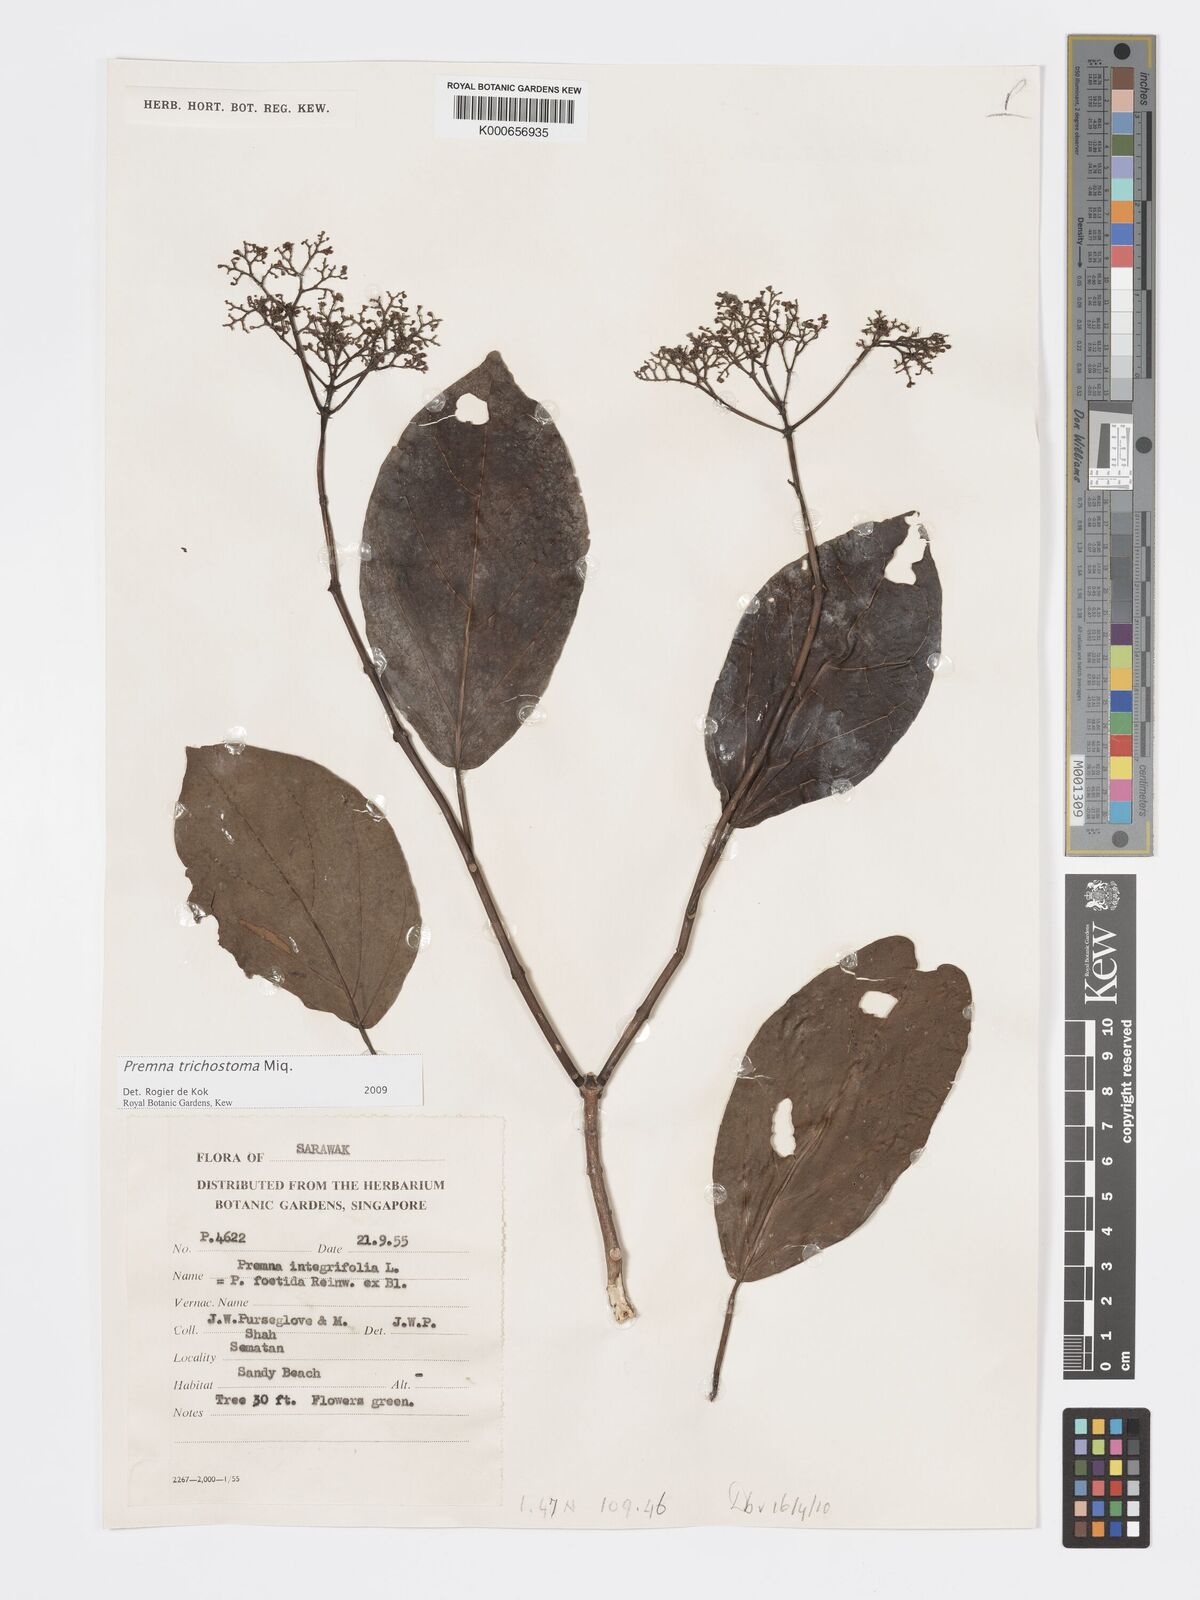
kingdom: Plantae
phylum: Tracheophyta
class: Magnoliopsida
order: Lamiales
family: Lamiaceae
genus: Premna
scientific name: Premna trichostoma
